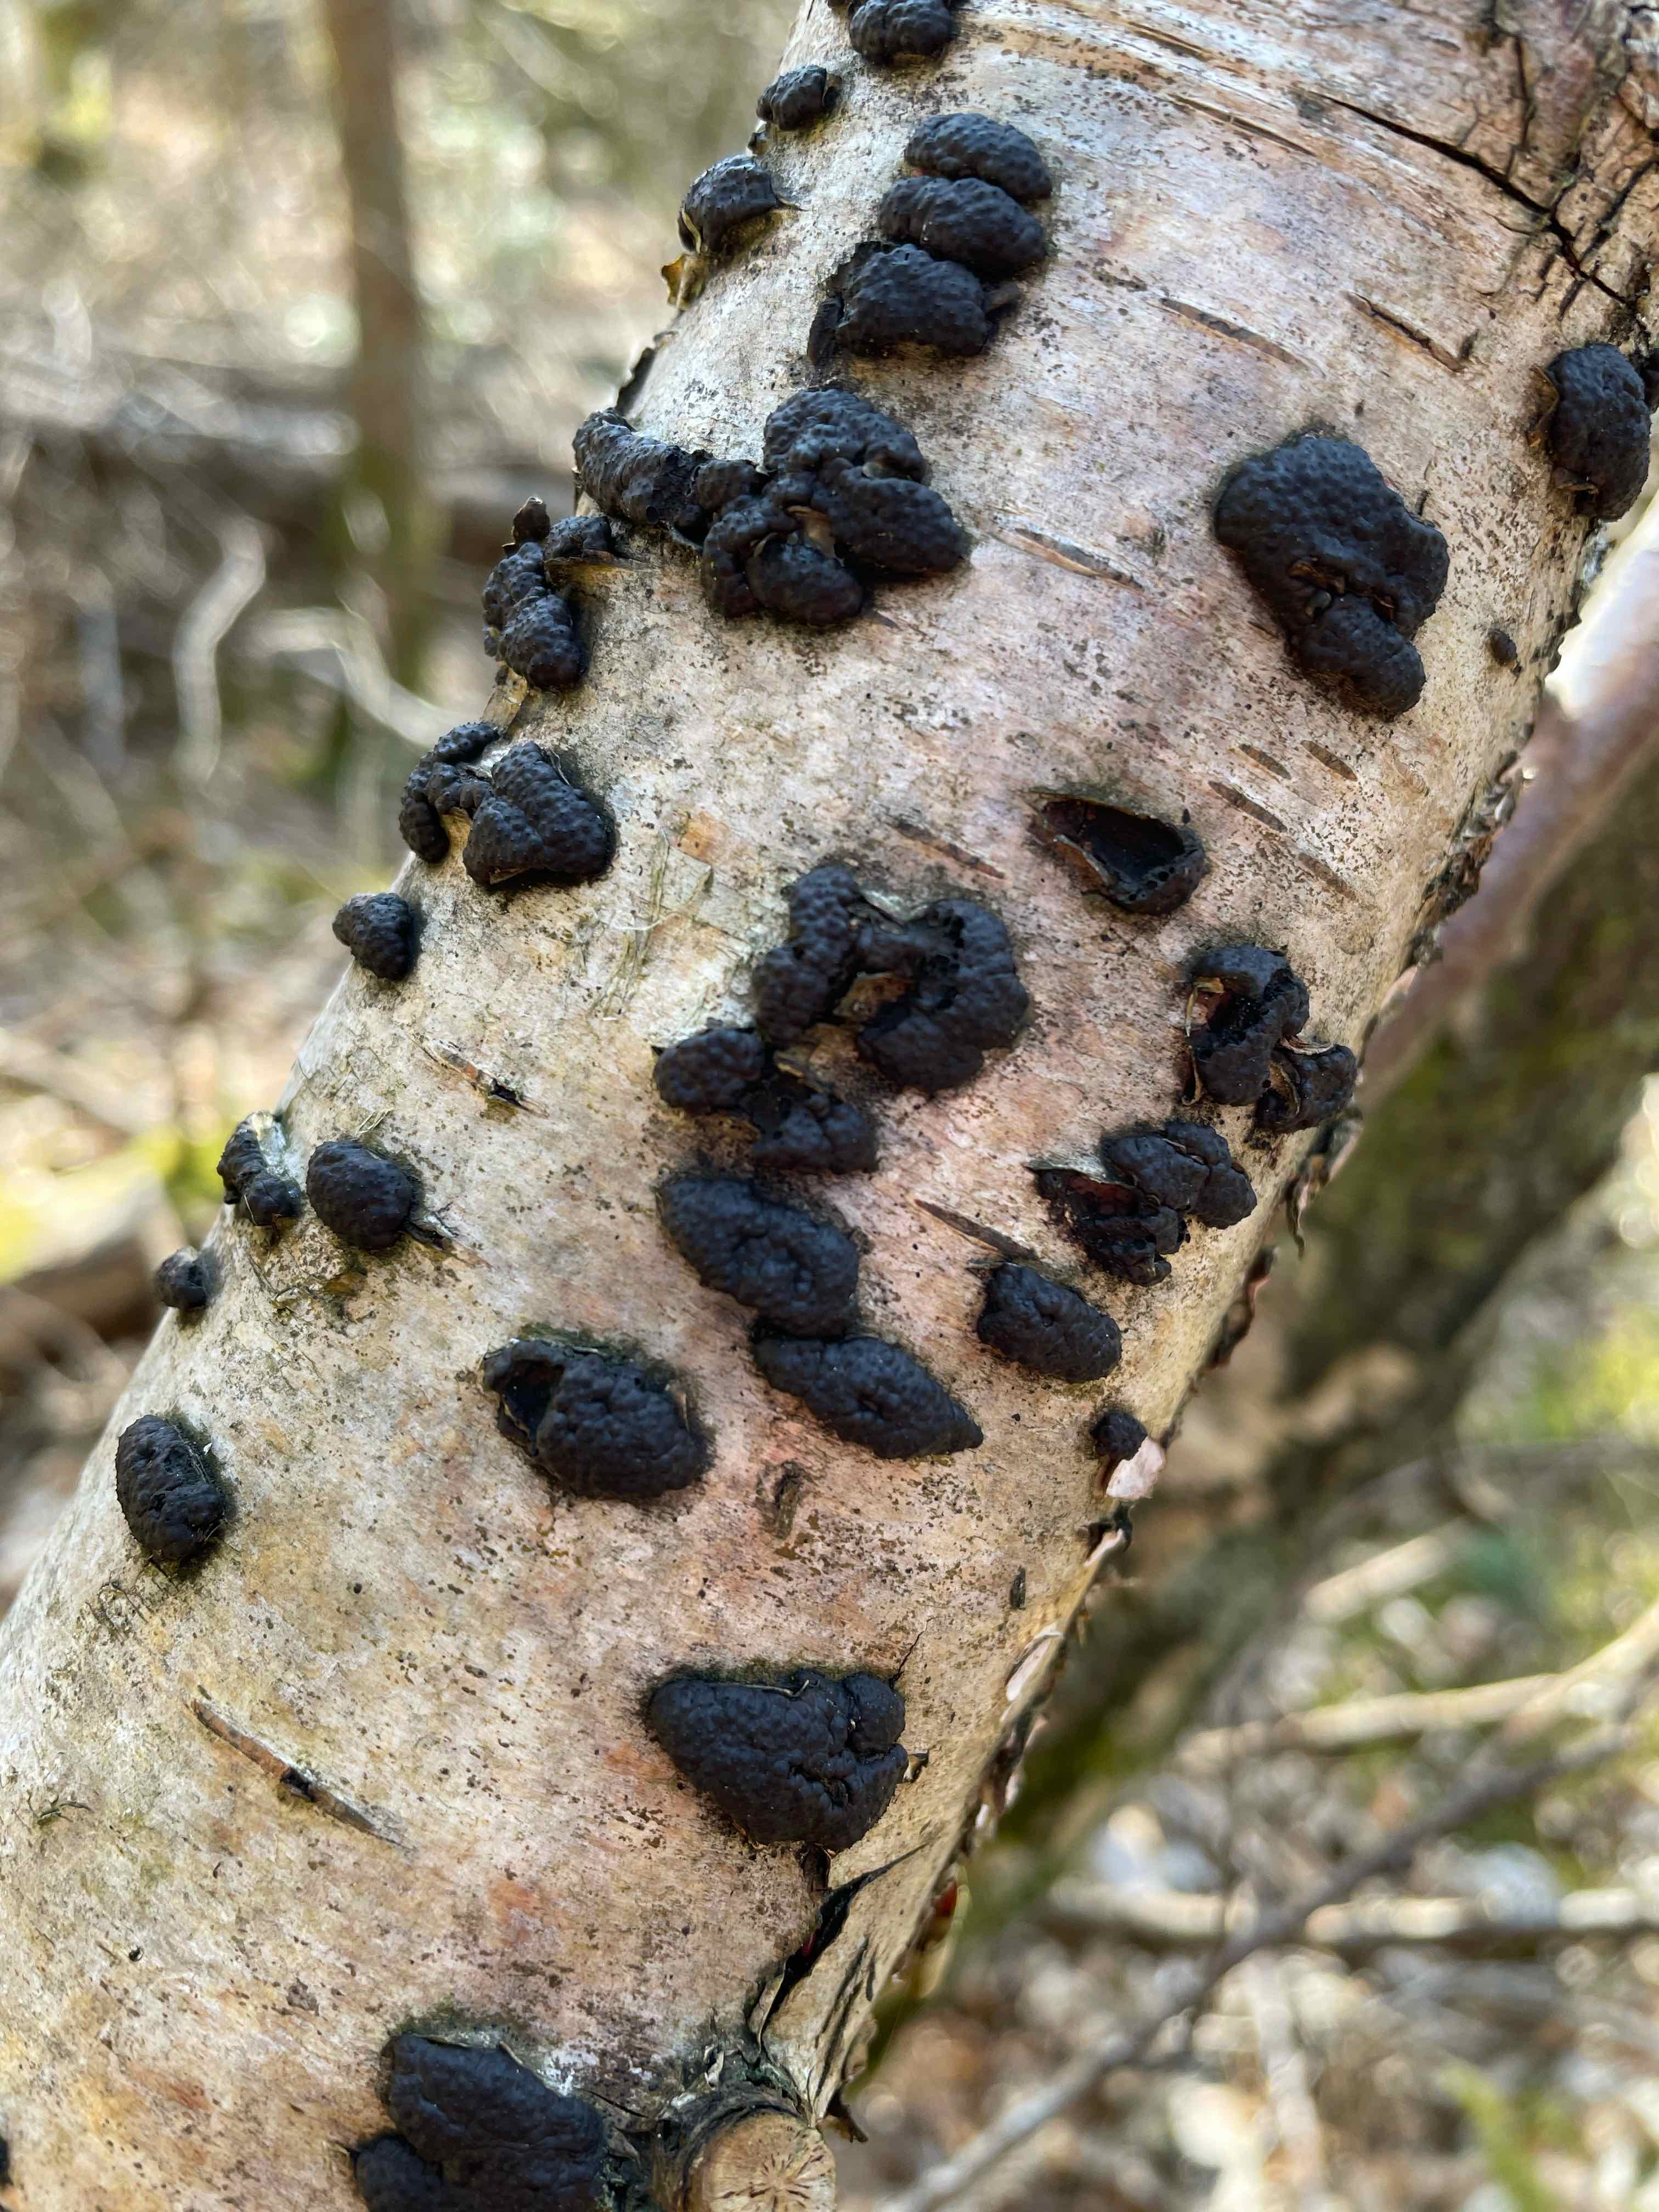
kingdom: Fungi
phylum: Ascomycota
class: Sordariomycetes
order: Xylariales
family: Hypoxylaceae
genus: Jackrogersella
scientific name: Jackrogersella multiformis
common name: foranderlig kulbær
